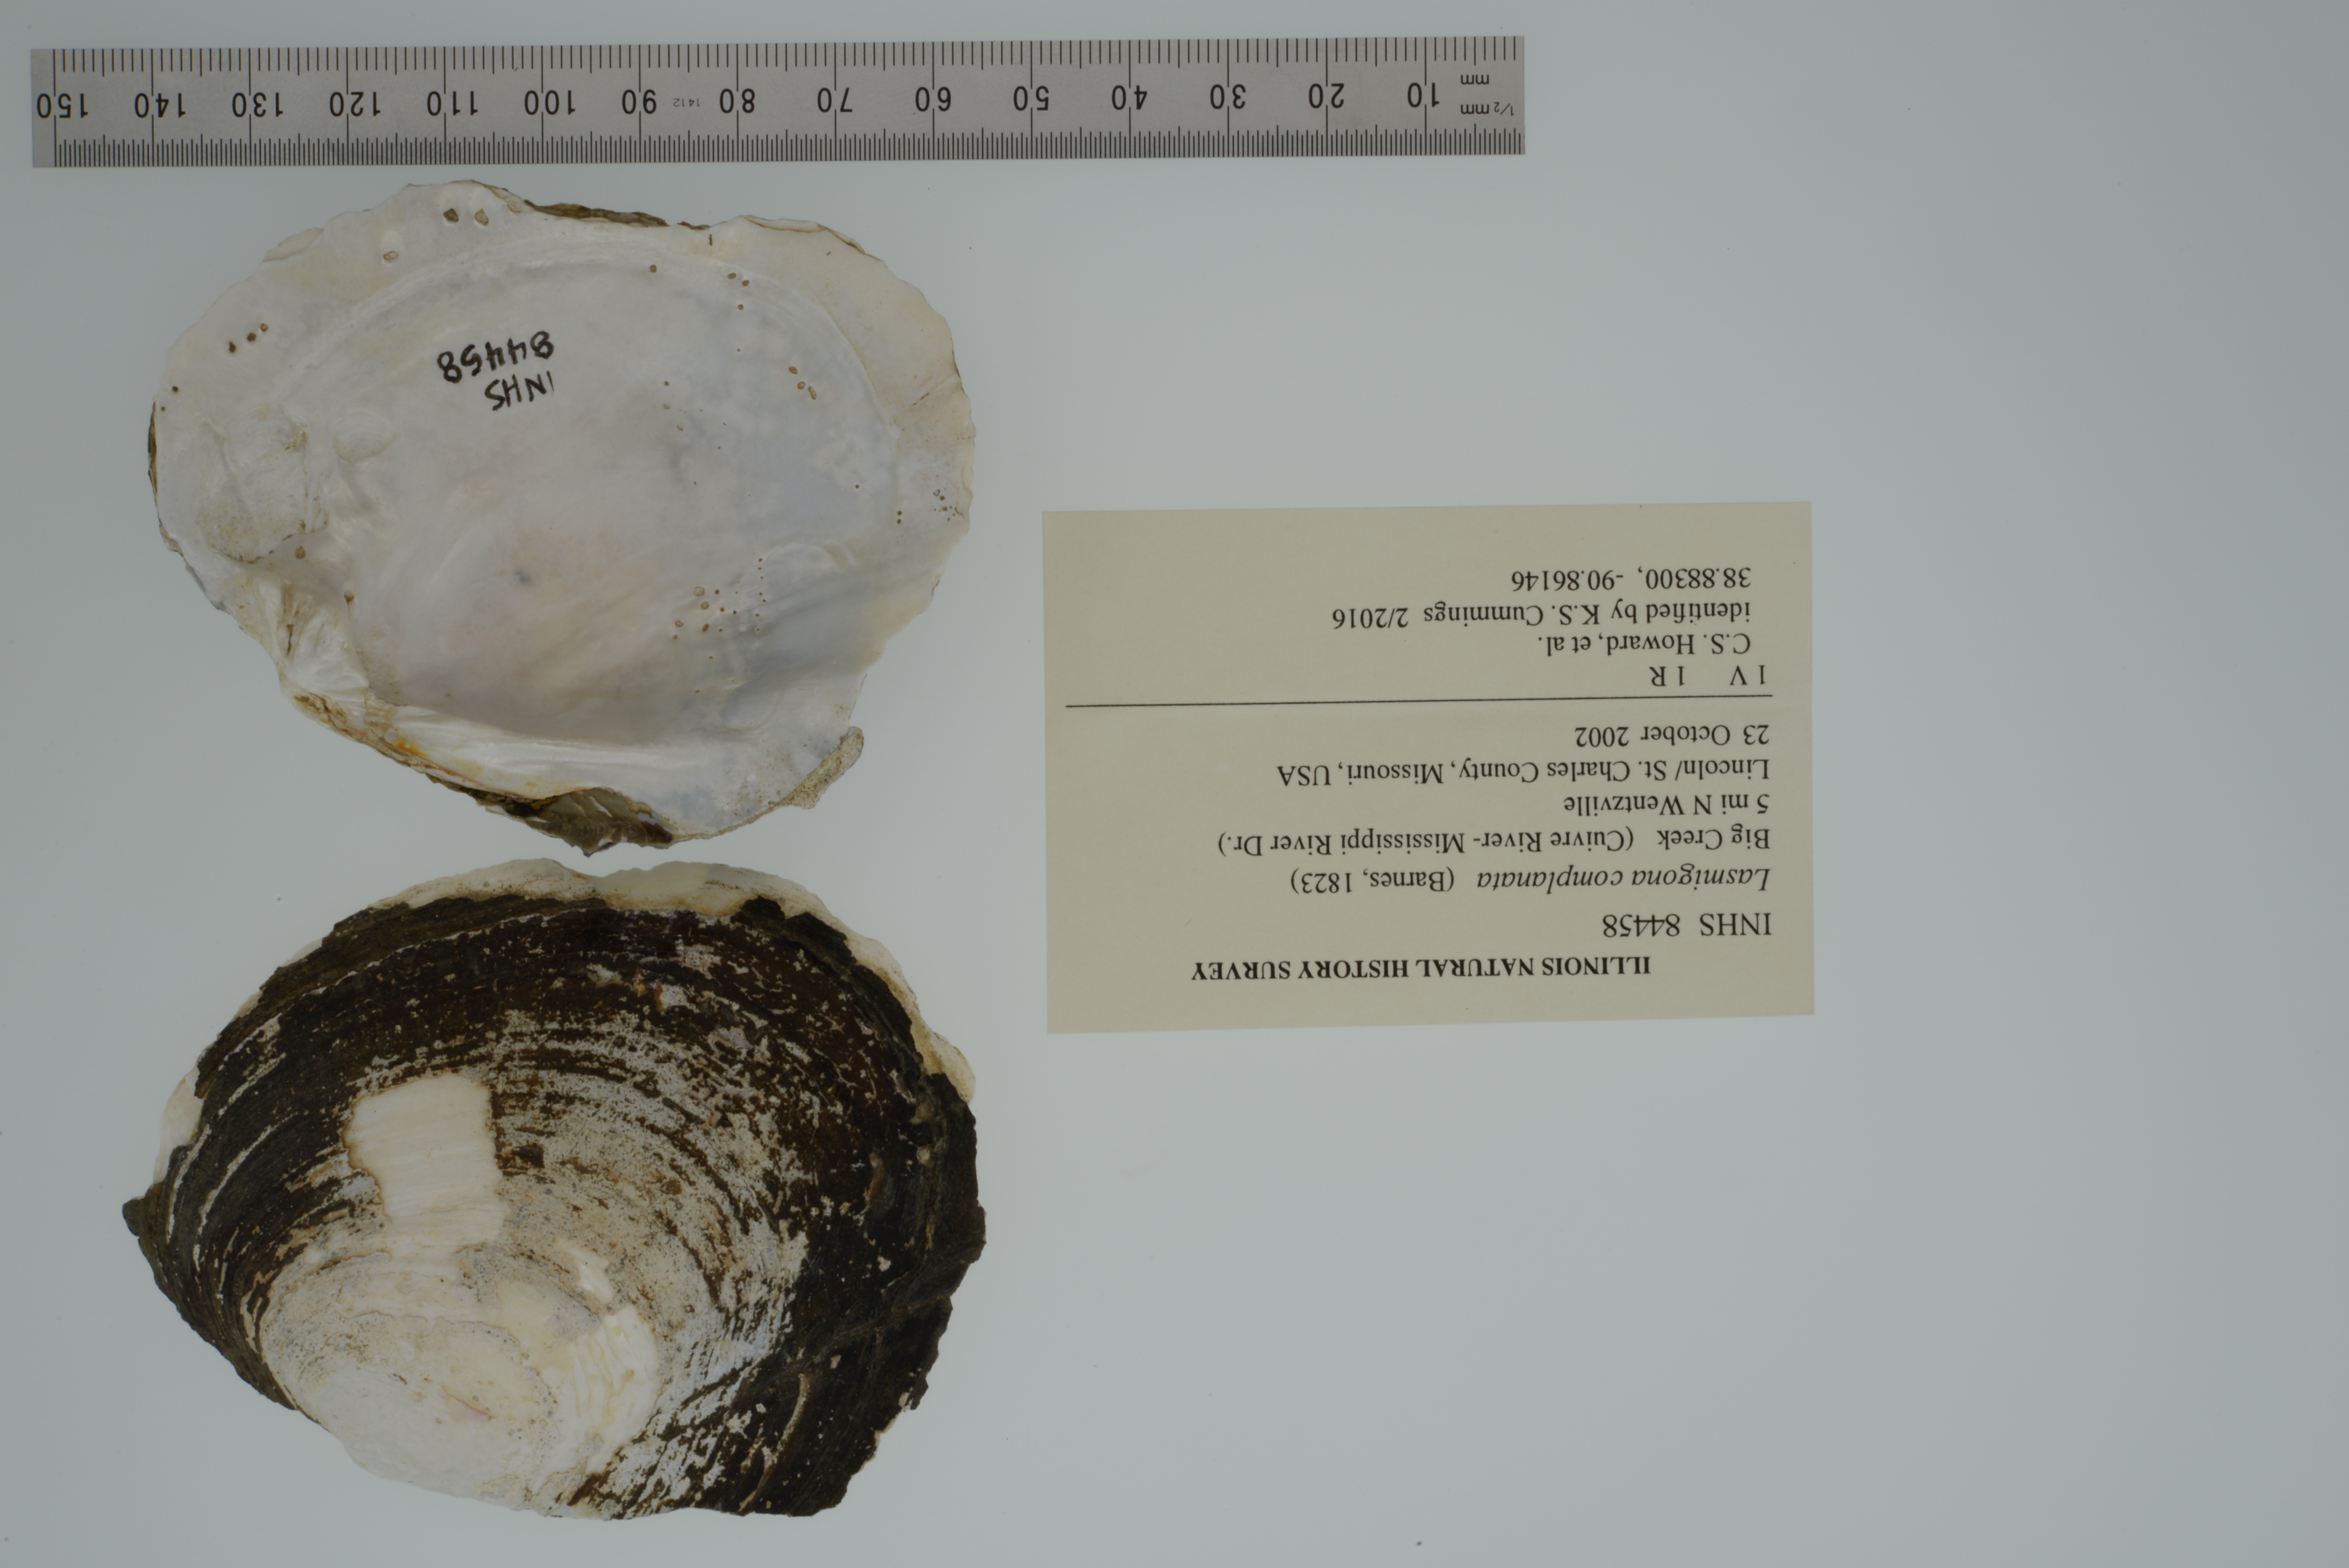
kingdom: Animalia
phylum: Mollusca
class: Bivalvia
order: Unionida
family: Unionidae
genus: Lasmigona
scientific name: Lasmigona complanata
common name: White heelsplitter
